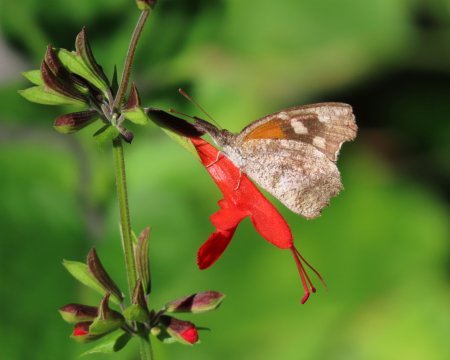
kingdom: Animalia
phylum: Arthropoda
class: Insecta
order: Lepidoptera
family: Nymphalidae
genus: Libytheana
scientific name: Libytheana carinenta
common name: American Snout
